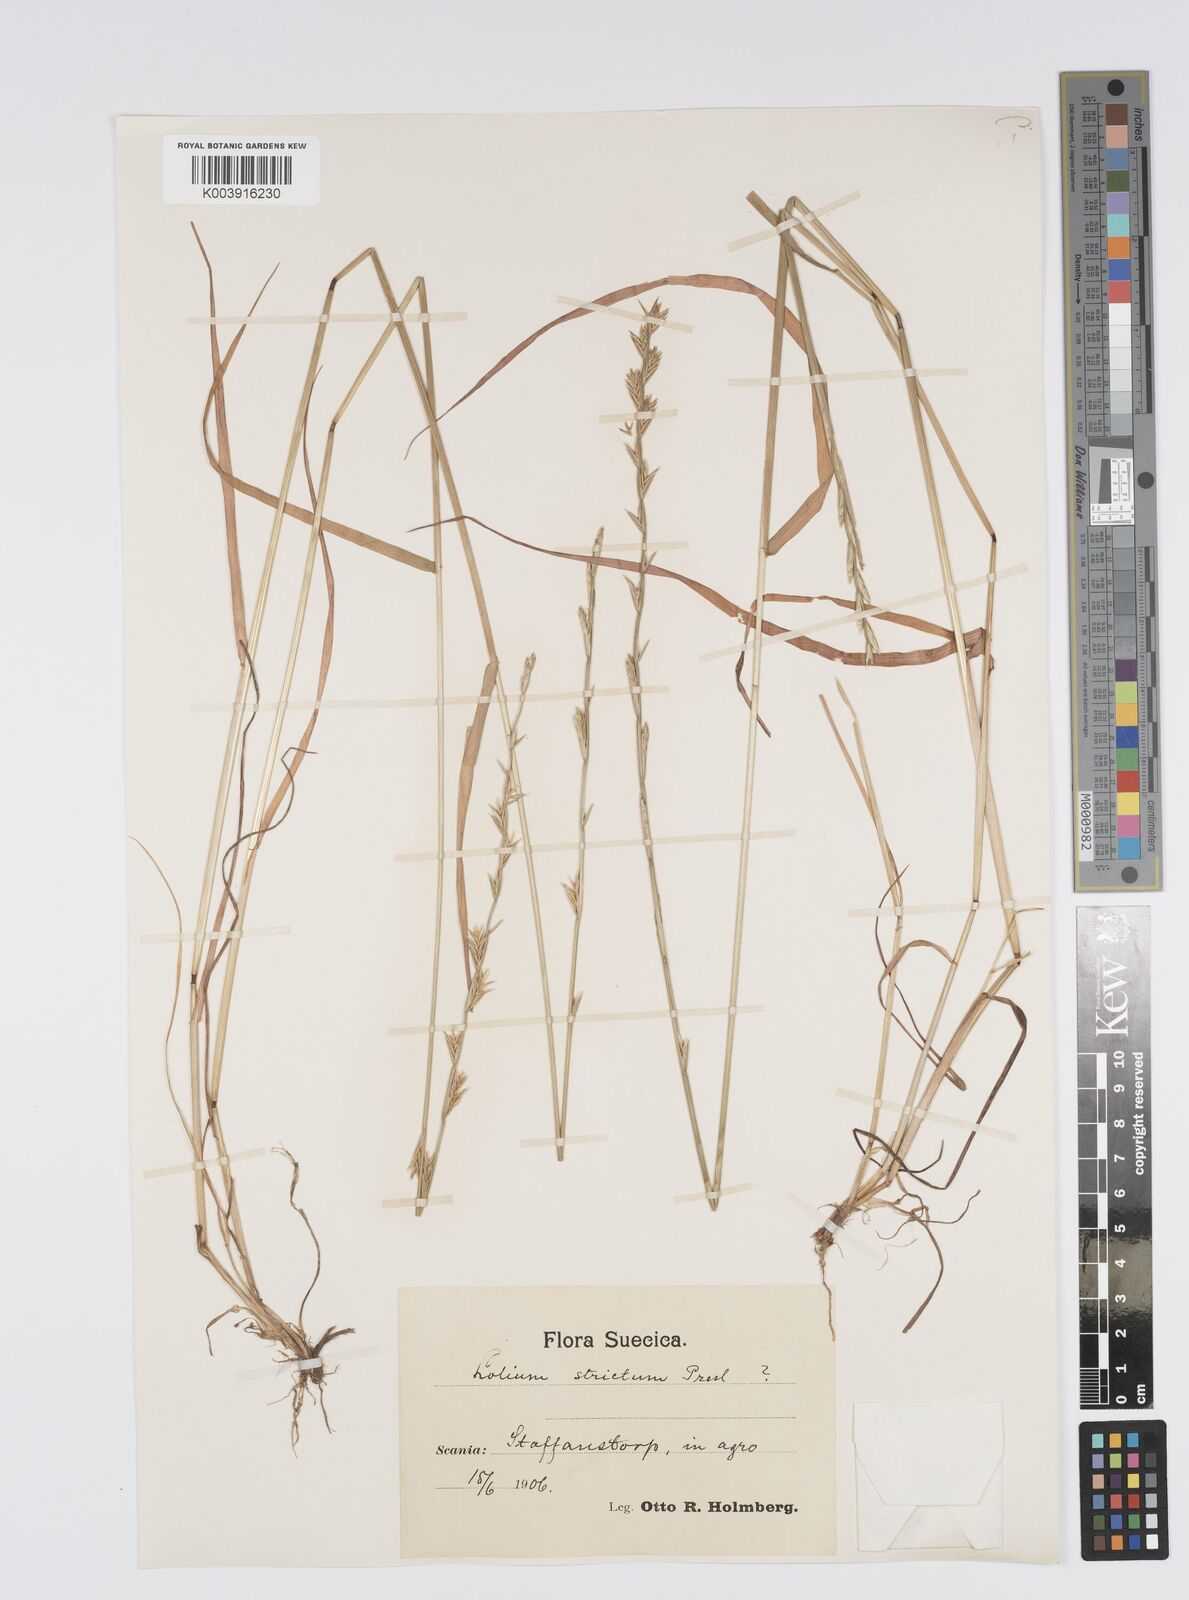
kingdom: Plantae
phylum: Tracheophyta
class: Liliopsida
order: Poales
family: Poaceae
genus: Lolium
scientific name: Lolium rigidum
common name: Wimmera ryegrass
